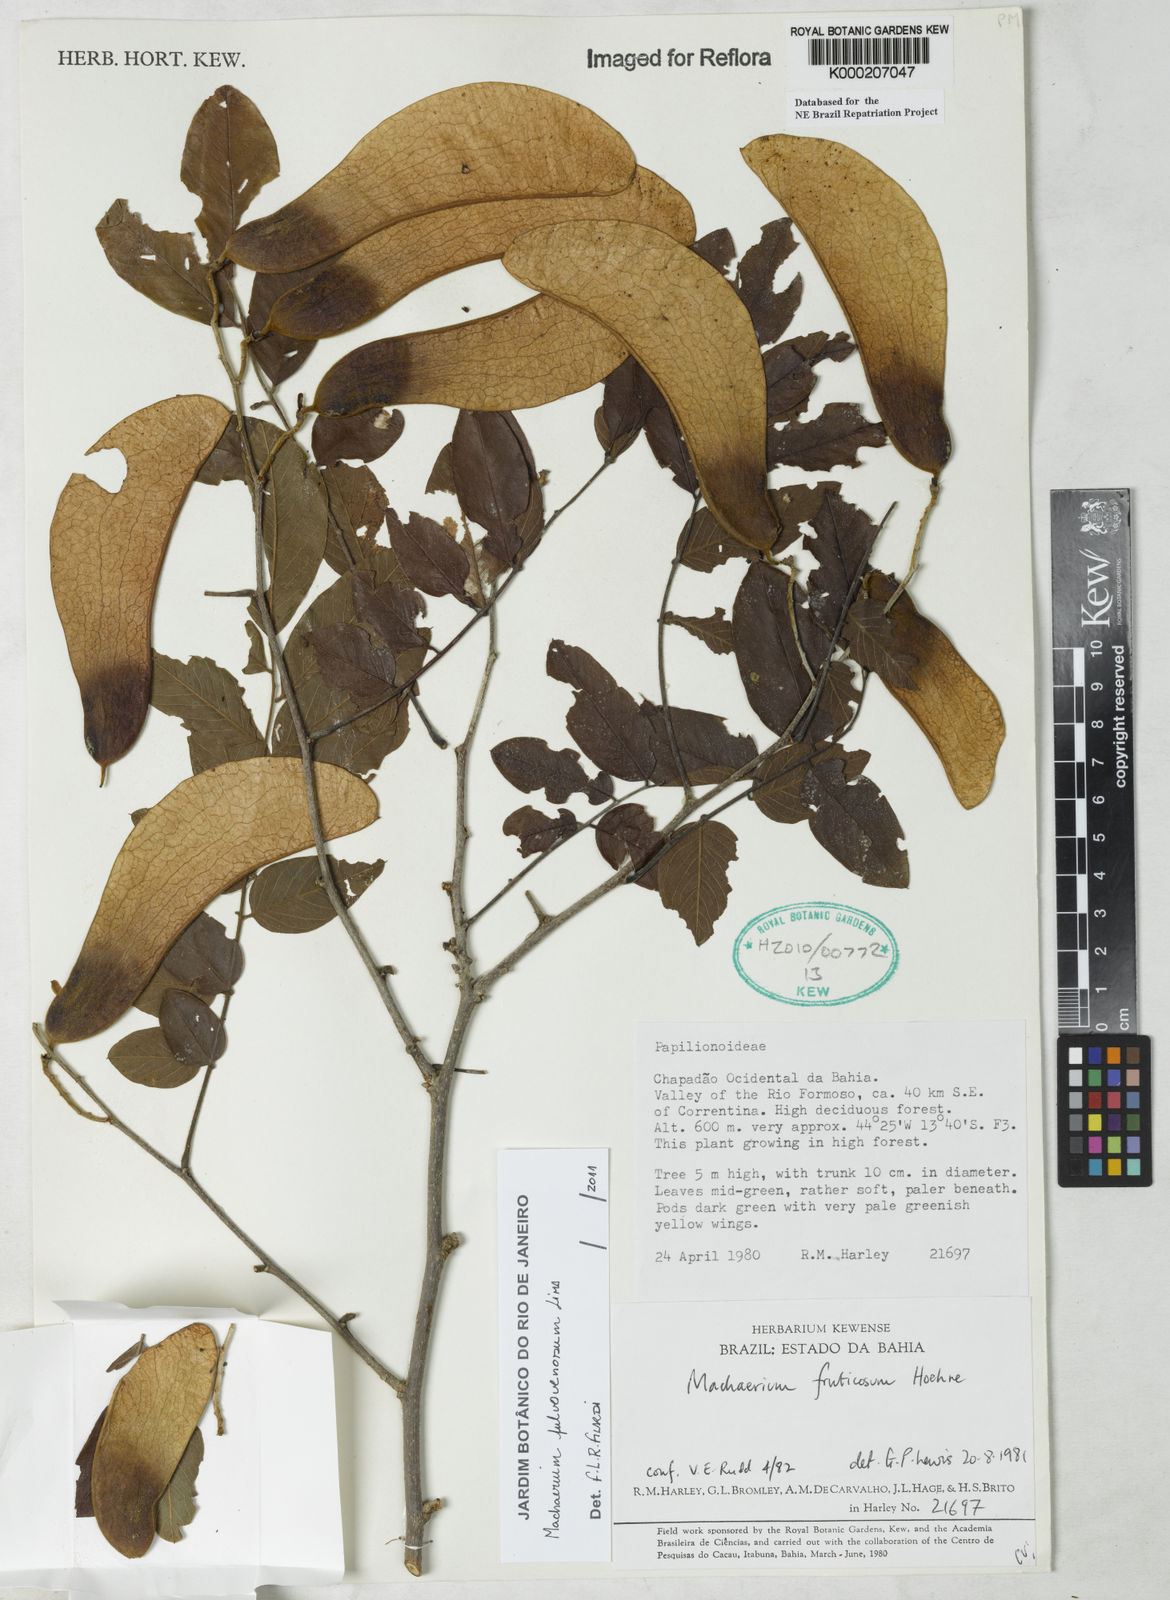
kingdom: Plantae
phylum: Tracheophyta
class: Magnoliopsida
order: Fabales
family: Fabaceae
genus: Machaerium
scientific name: Machaerium nigrum
